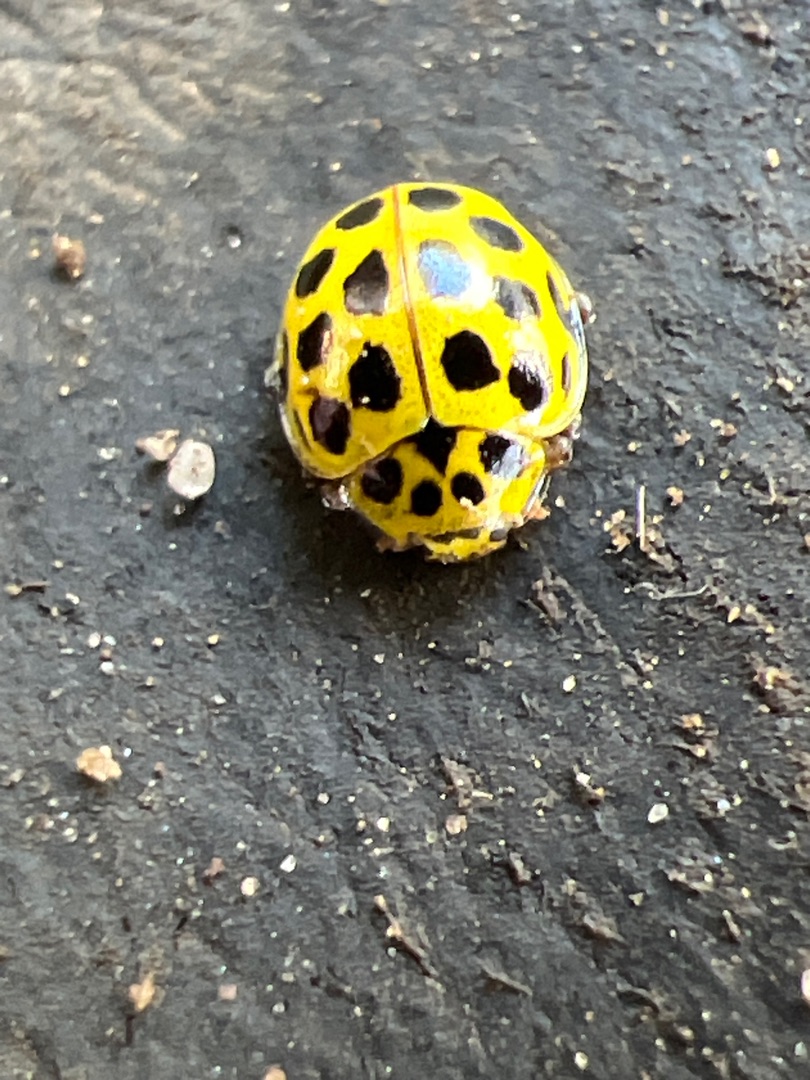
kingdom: Animalia
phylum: Arthropoda
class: Insecta
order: Coleoptera
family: Coccinellidae
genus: Psyllobora
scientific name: Psyllobora vigintiduopunctata
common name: Toogtyveplettet mariehøne
